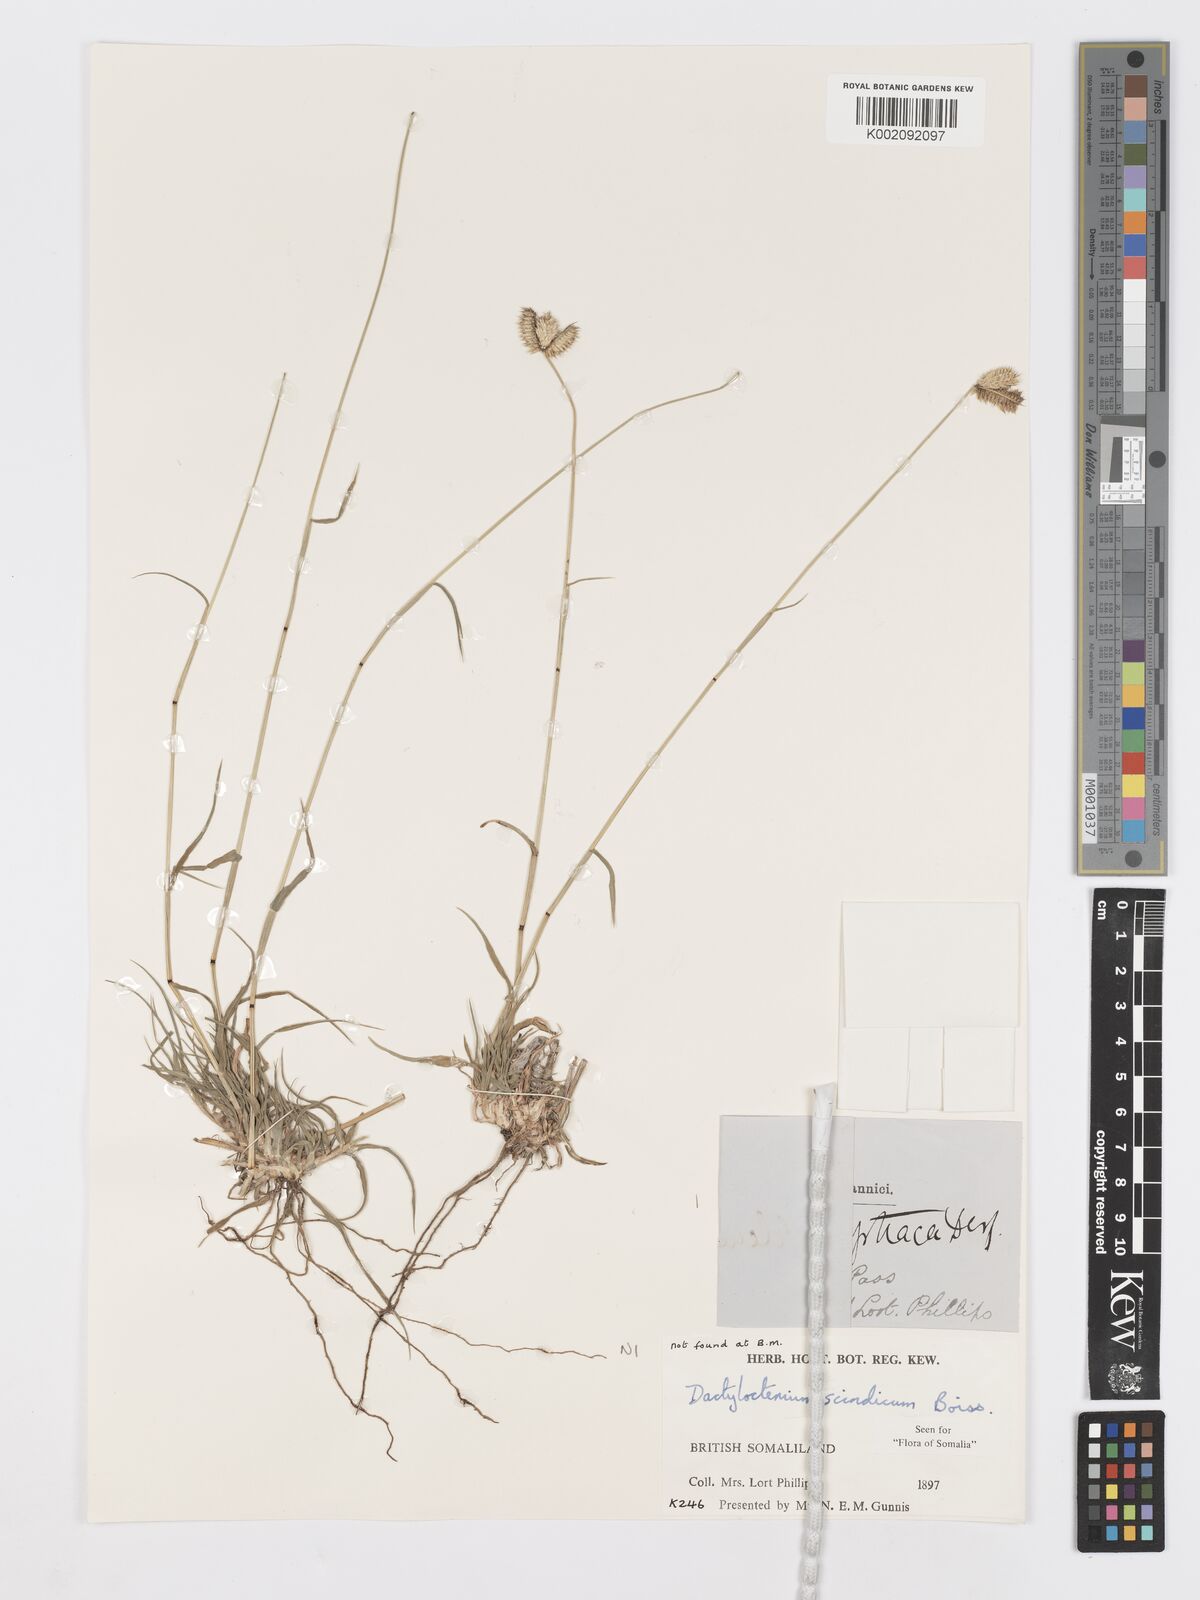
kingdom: Plantae
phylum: Tracheophyta
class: Liliopsida
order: Poales
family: Poaceae
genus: Dactyloctenium
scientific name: Dactyloctenium scindicum
